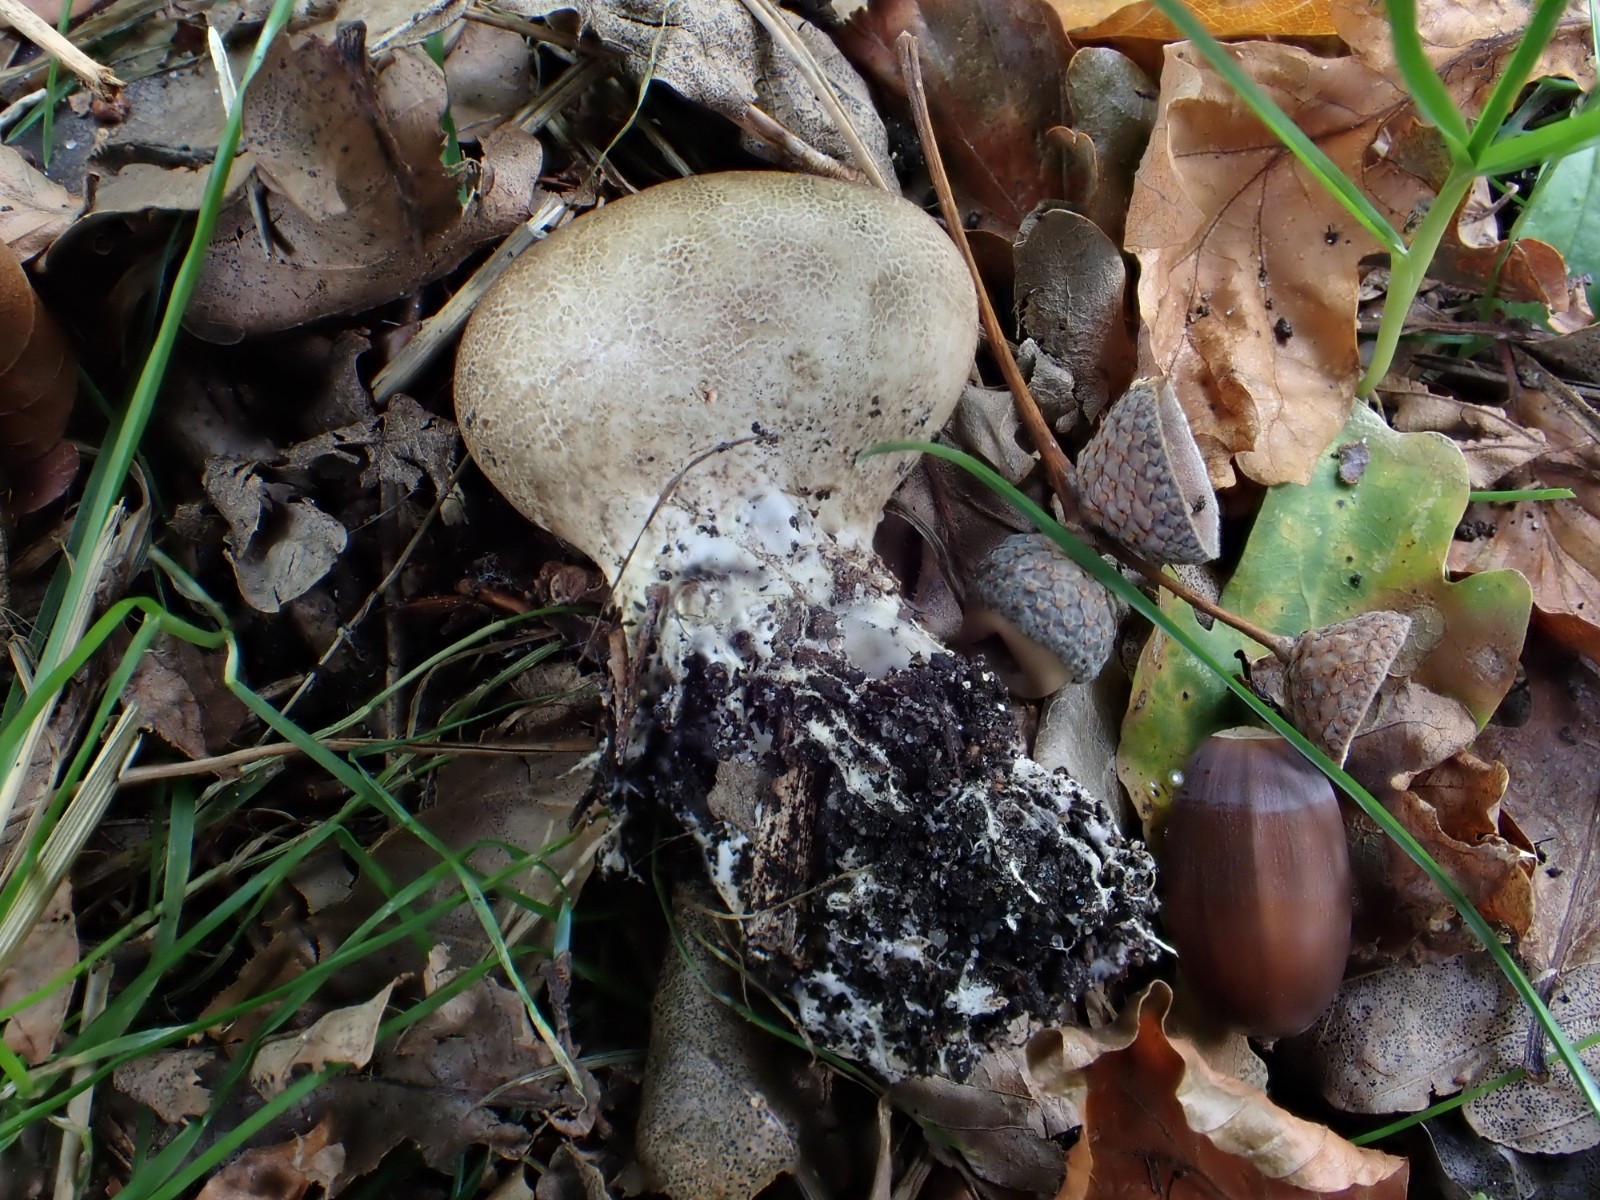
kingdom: Fungi
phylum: Basidiomycota
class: Agaricomycetes
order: Boletales
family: Sclerodermataceae
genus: Scleroderma
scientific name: Scleroderma areolatum
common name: plettet bruskbold
